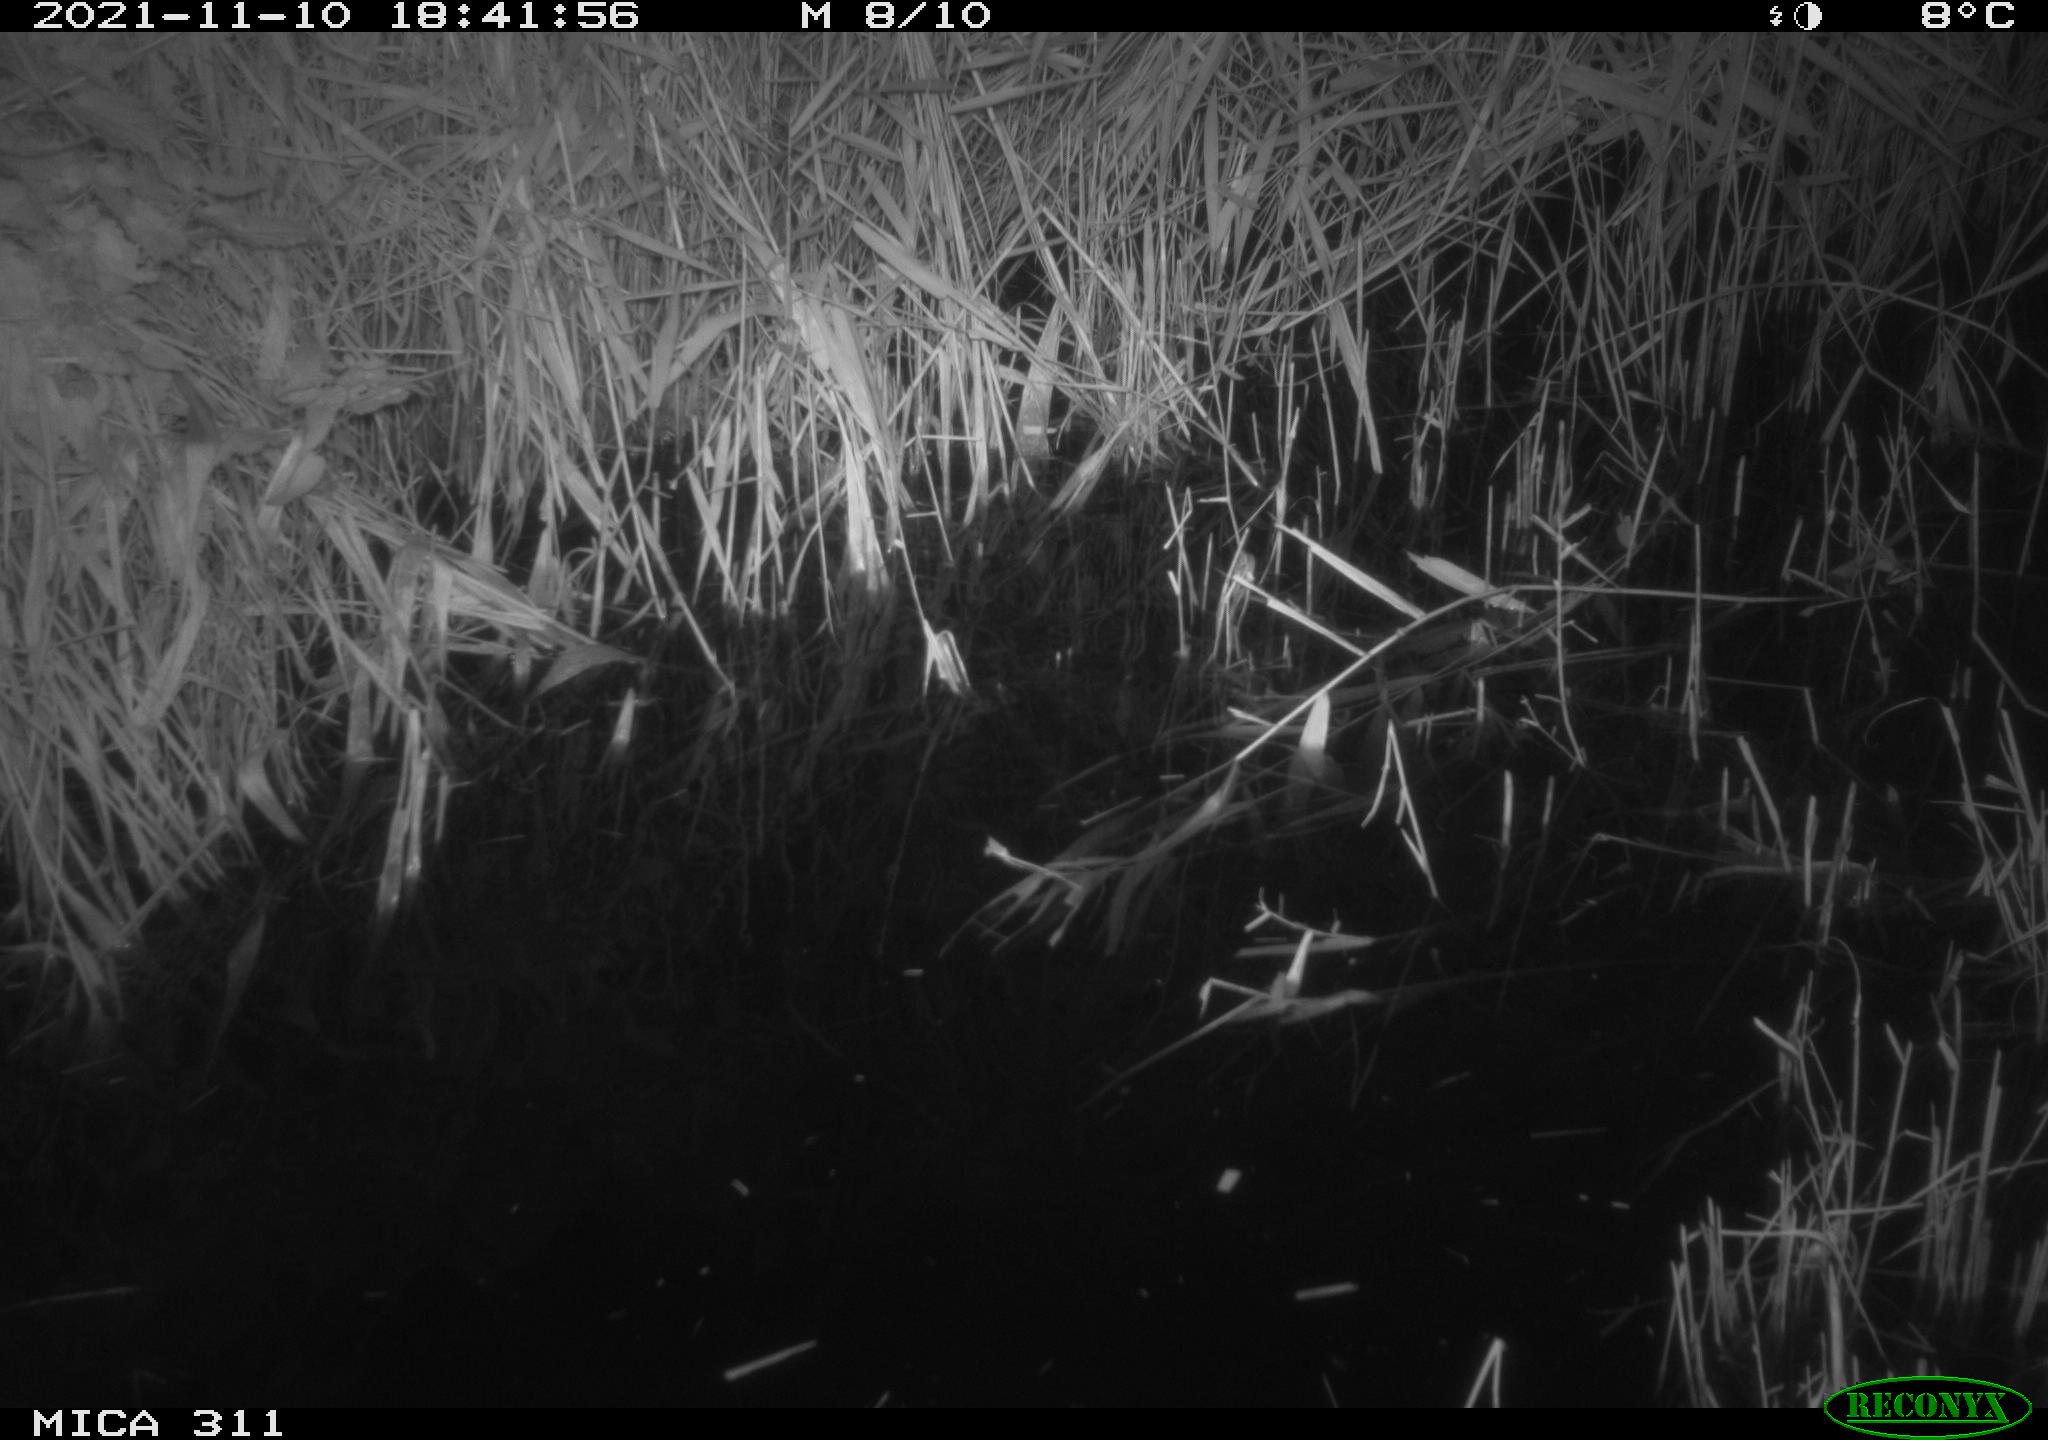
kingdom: Animalia
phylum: Chordata
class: Mammalia
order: Rodentia
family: Muridae
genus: Rattus
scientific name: Rattus norvegicus
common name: Brown rat
